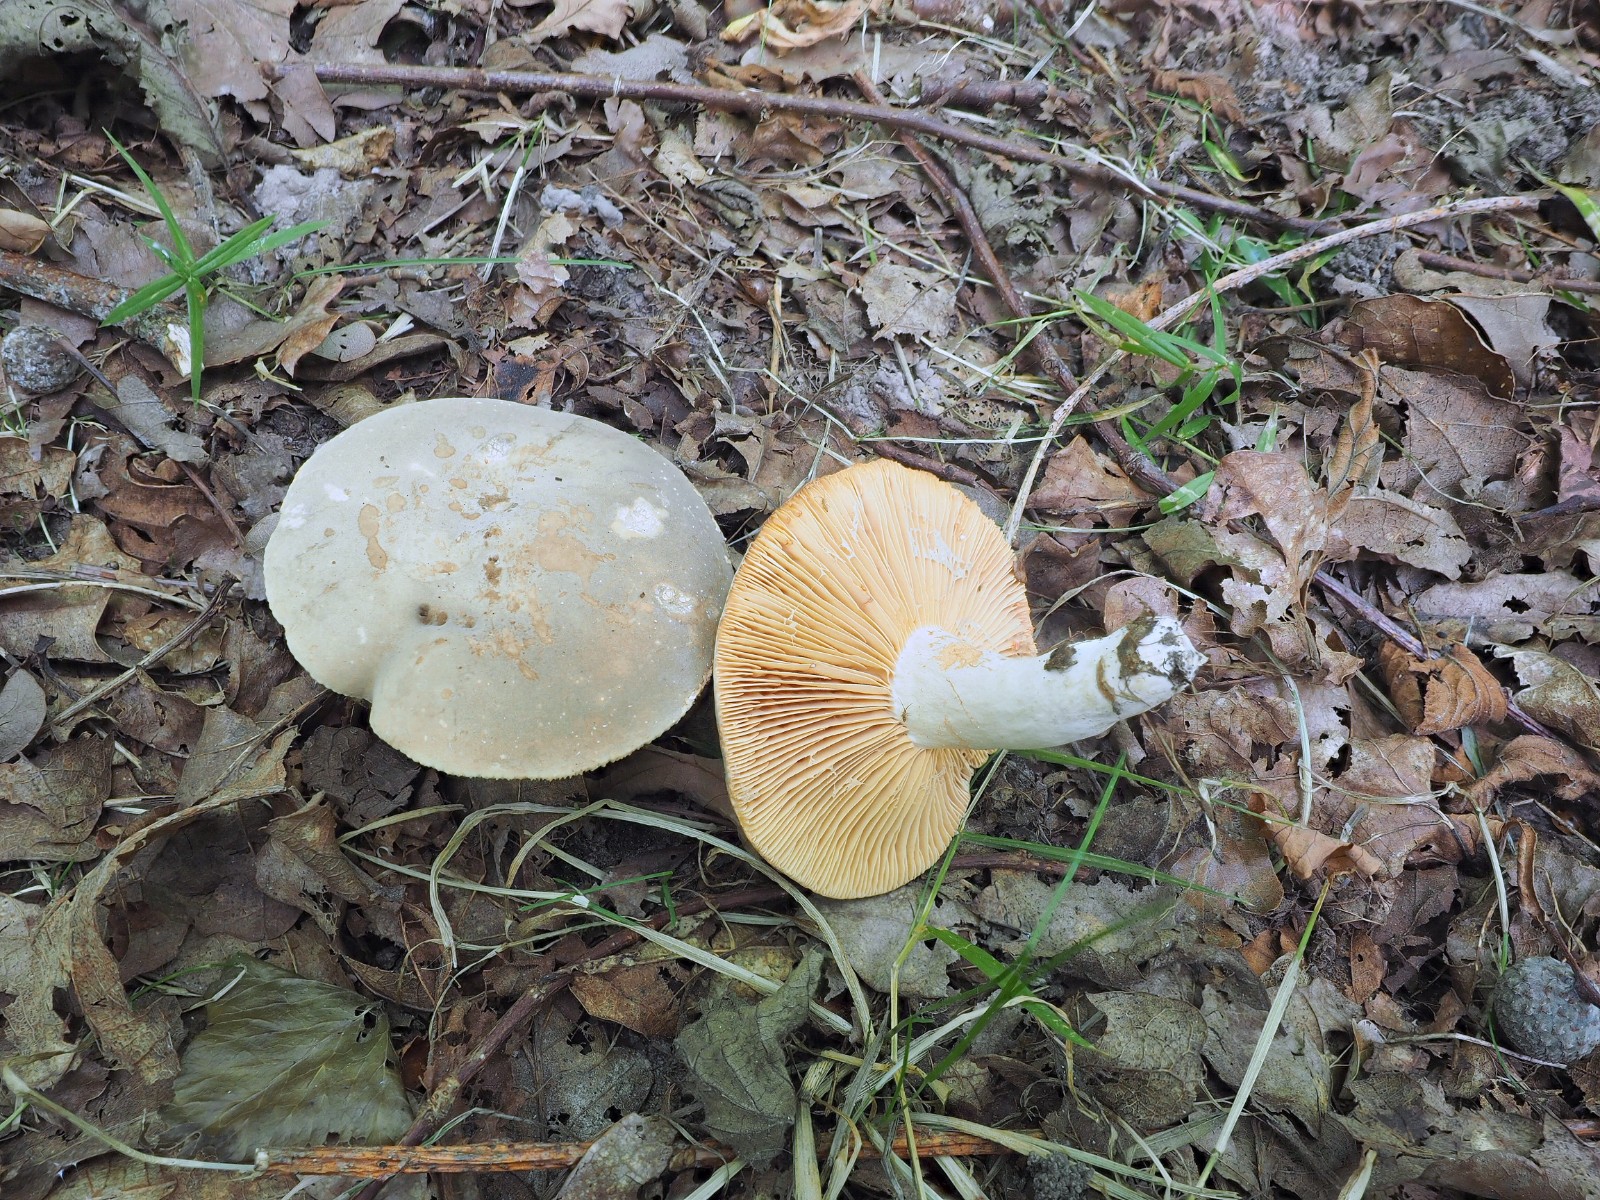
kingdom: Fungi
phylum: Basidiomycota
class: Agaricomycetes
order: Russulales
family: Russulaceae
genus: Lactarius
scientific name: Lactarius azonites
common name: røggrå mælkehat
